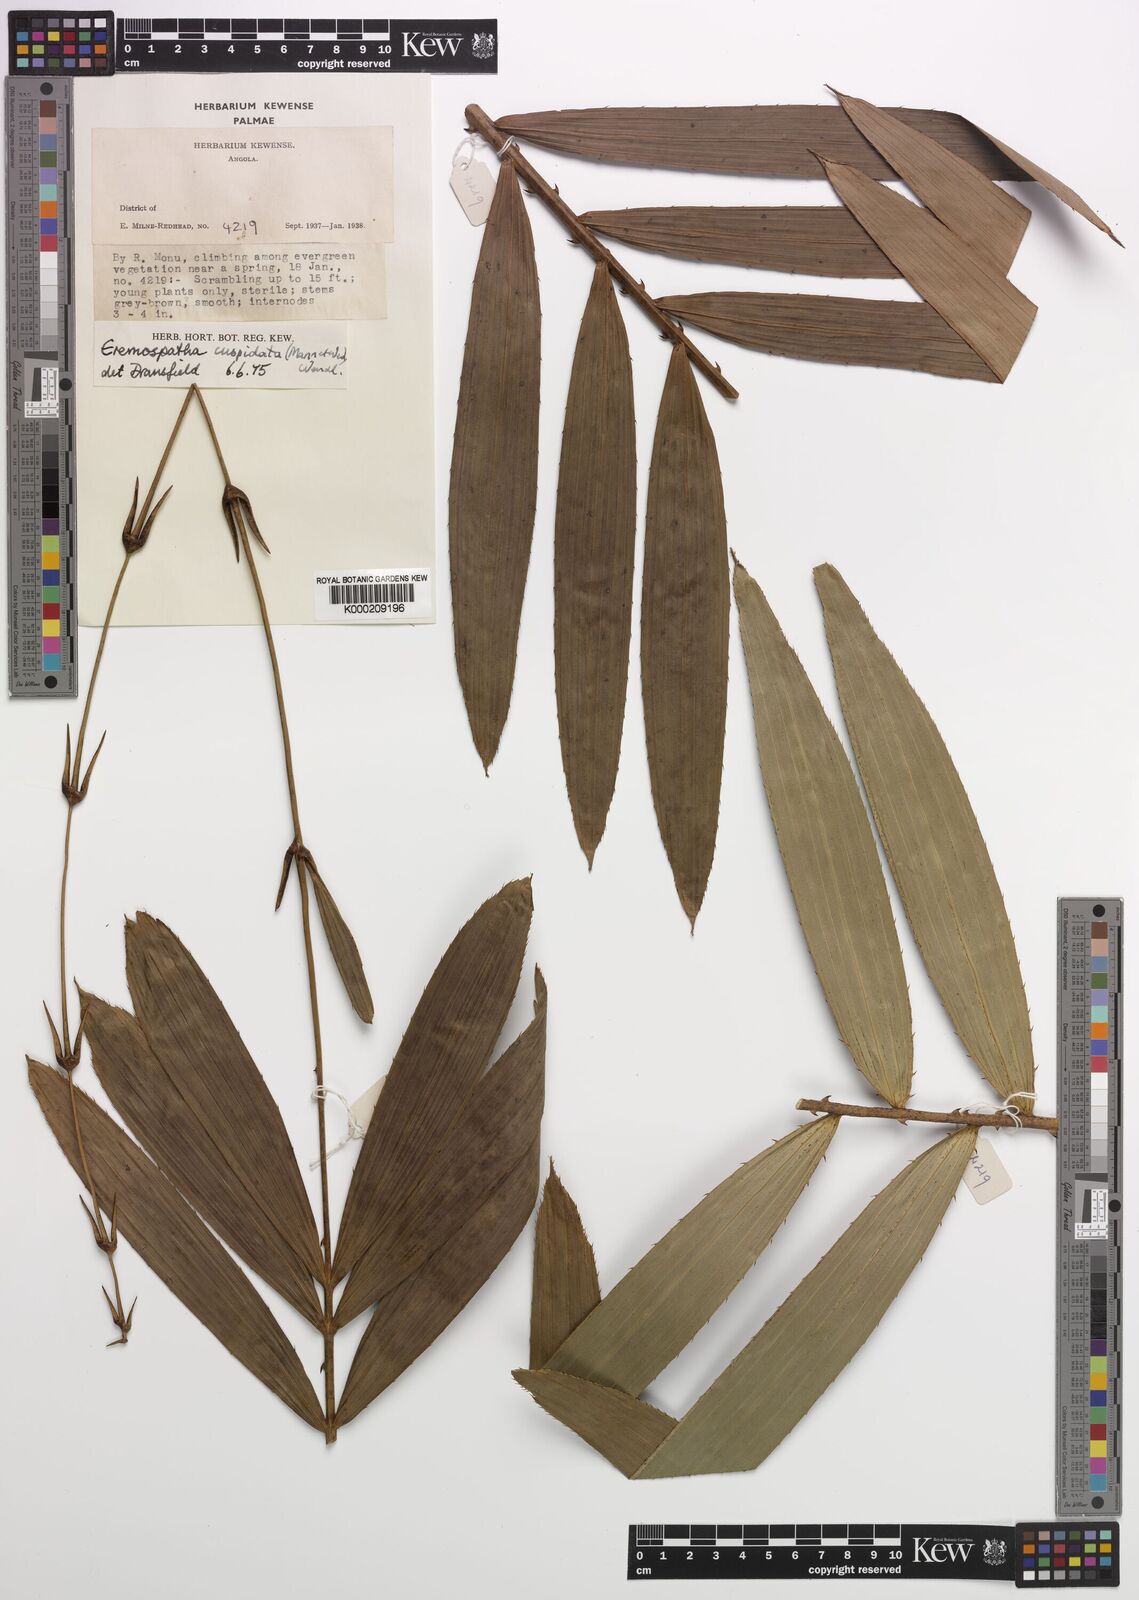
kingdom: Plantae
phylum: Tracheophyta
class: Liliopsida
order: Arecales
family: Arecaceae
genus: Eremospatha
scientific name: Eremospatha cuspidata
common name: Rattan
